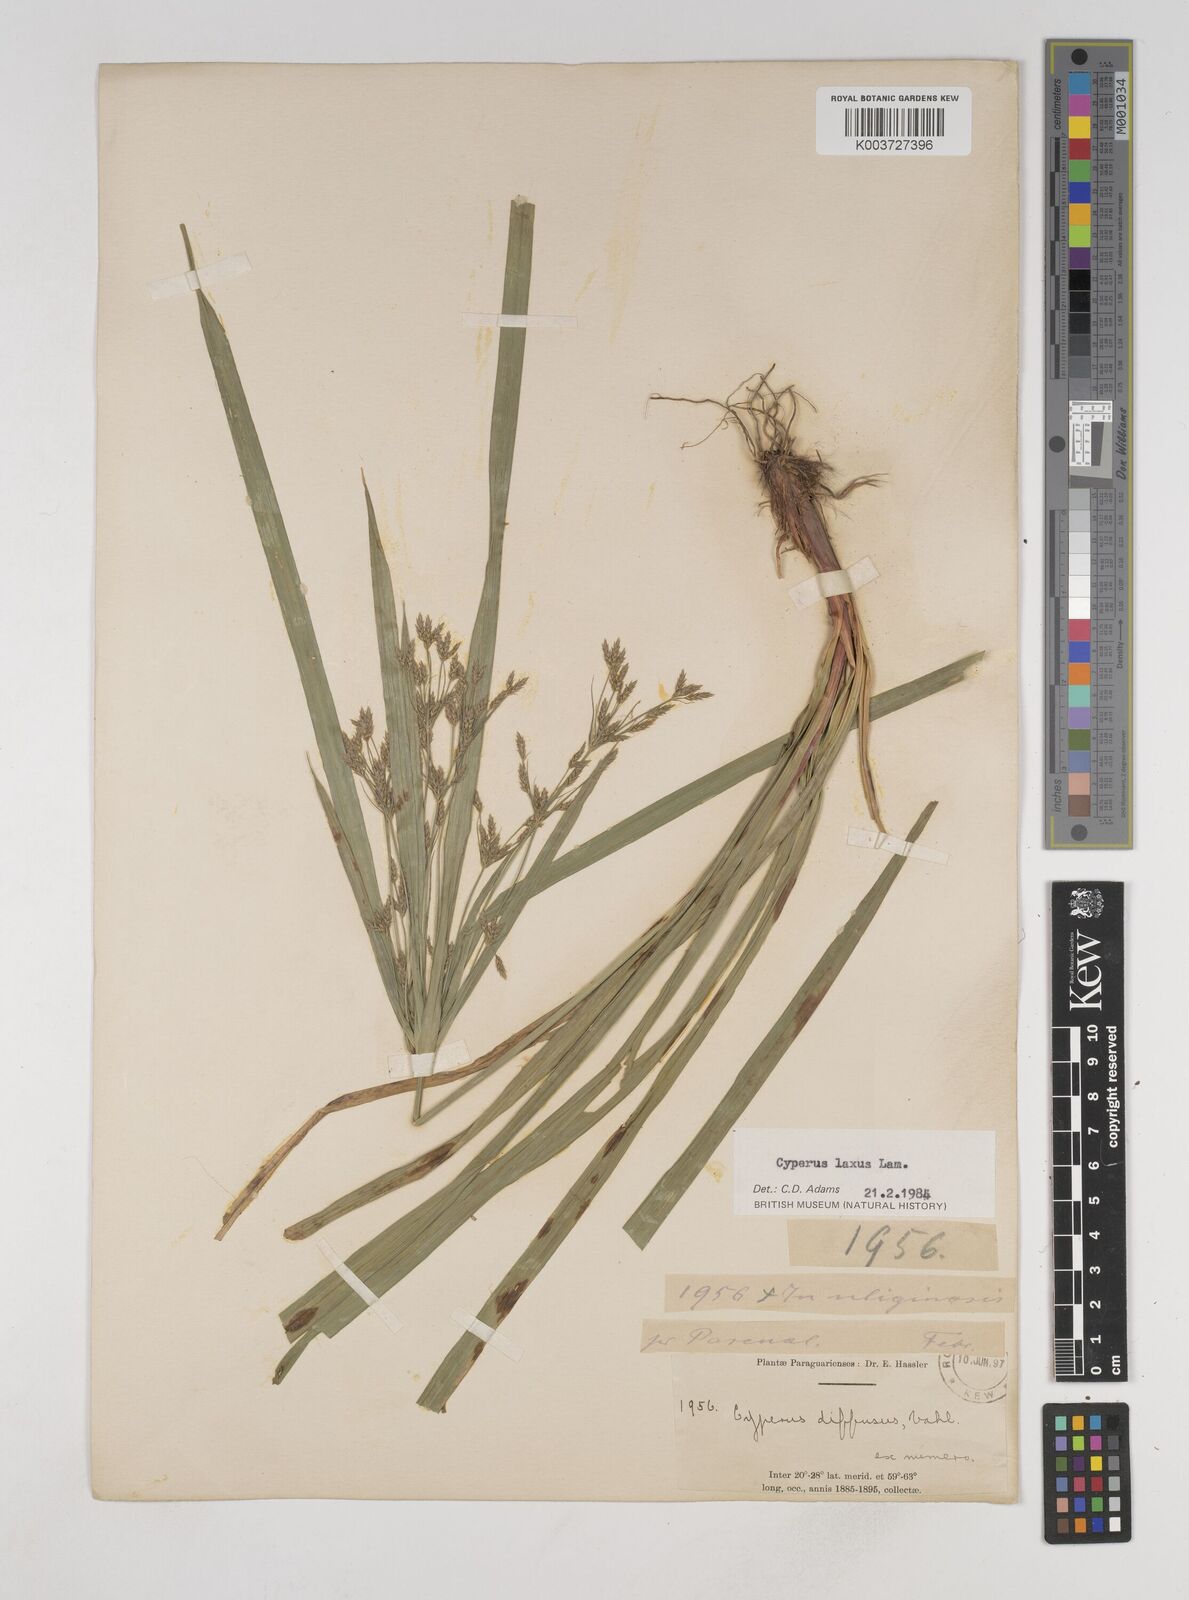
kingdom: Plantae
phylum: Tracheophyta
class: Liliopsida
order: Poales
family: Cyperaceae
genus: Cyperus
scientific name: Cyperus chalaranthus
